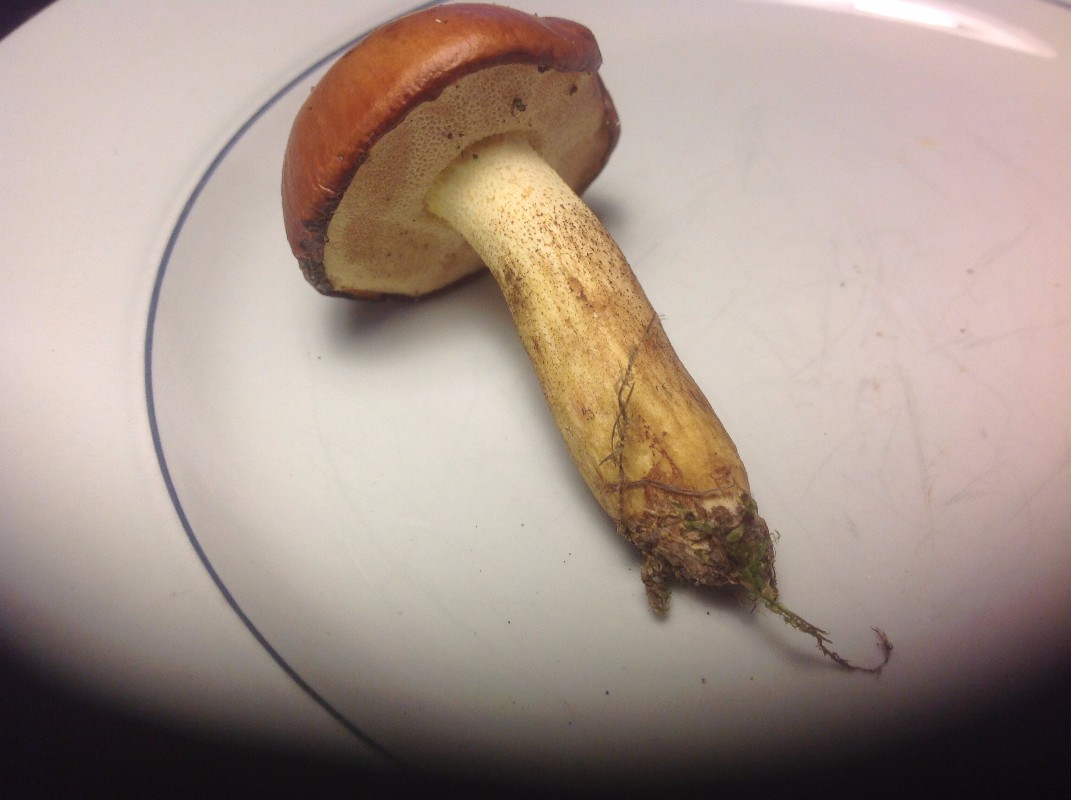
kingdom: Fungi
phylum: Basidiomycota
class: Agaricomycetes
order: Boletales
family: Suillaceae
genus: Suillus
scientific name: Suillus granulatus
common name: kornet slimrørhat
